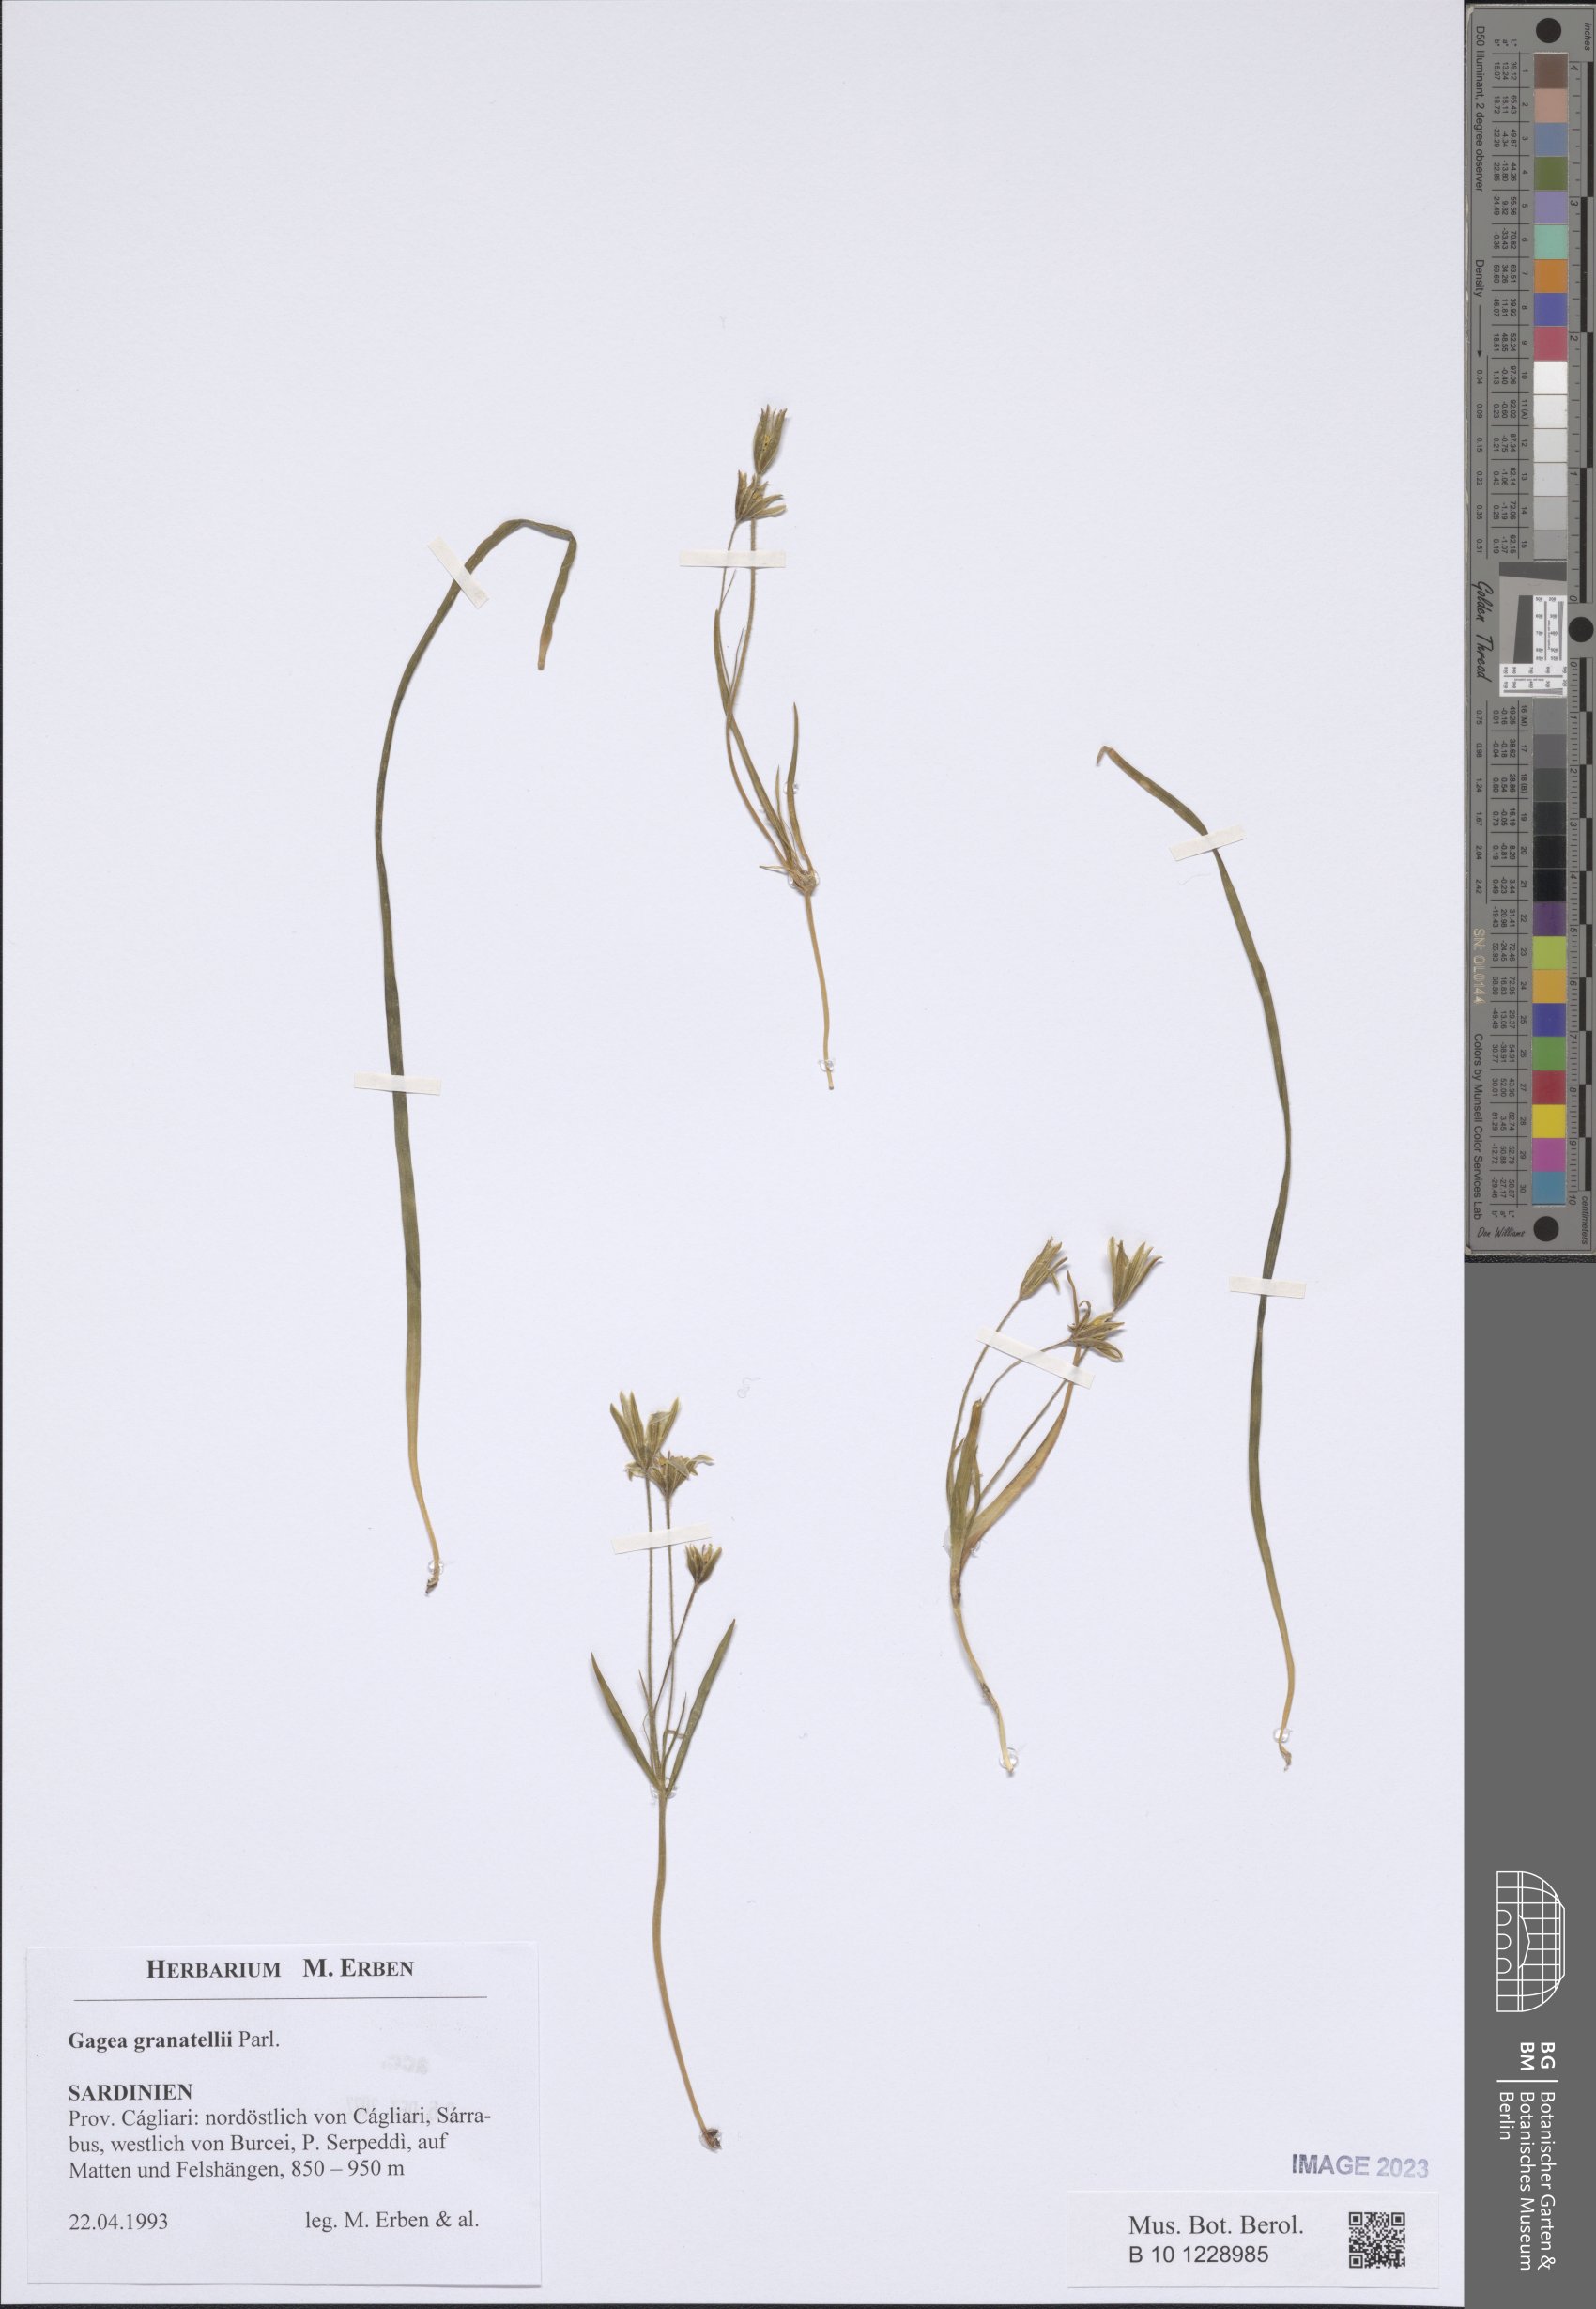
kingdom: Plantae
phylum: Tracheophyta
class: Liliopsida
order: Liliales
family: Liliaceae
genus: Gagea
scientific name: Gagea granatellii
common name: Granatelli’s gagea
